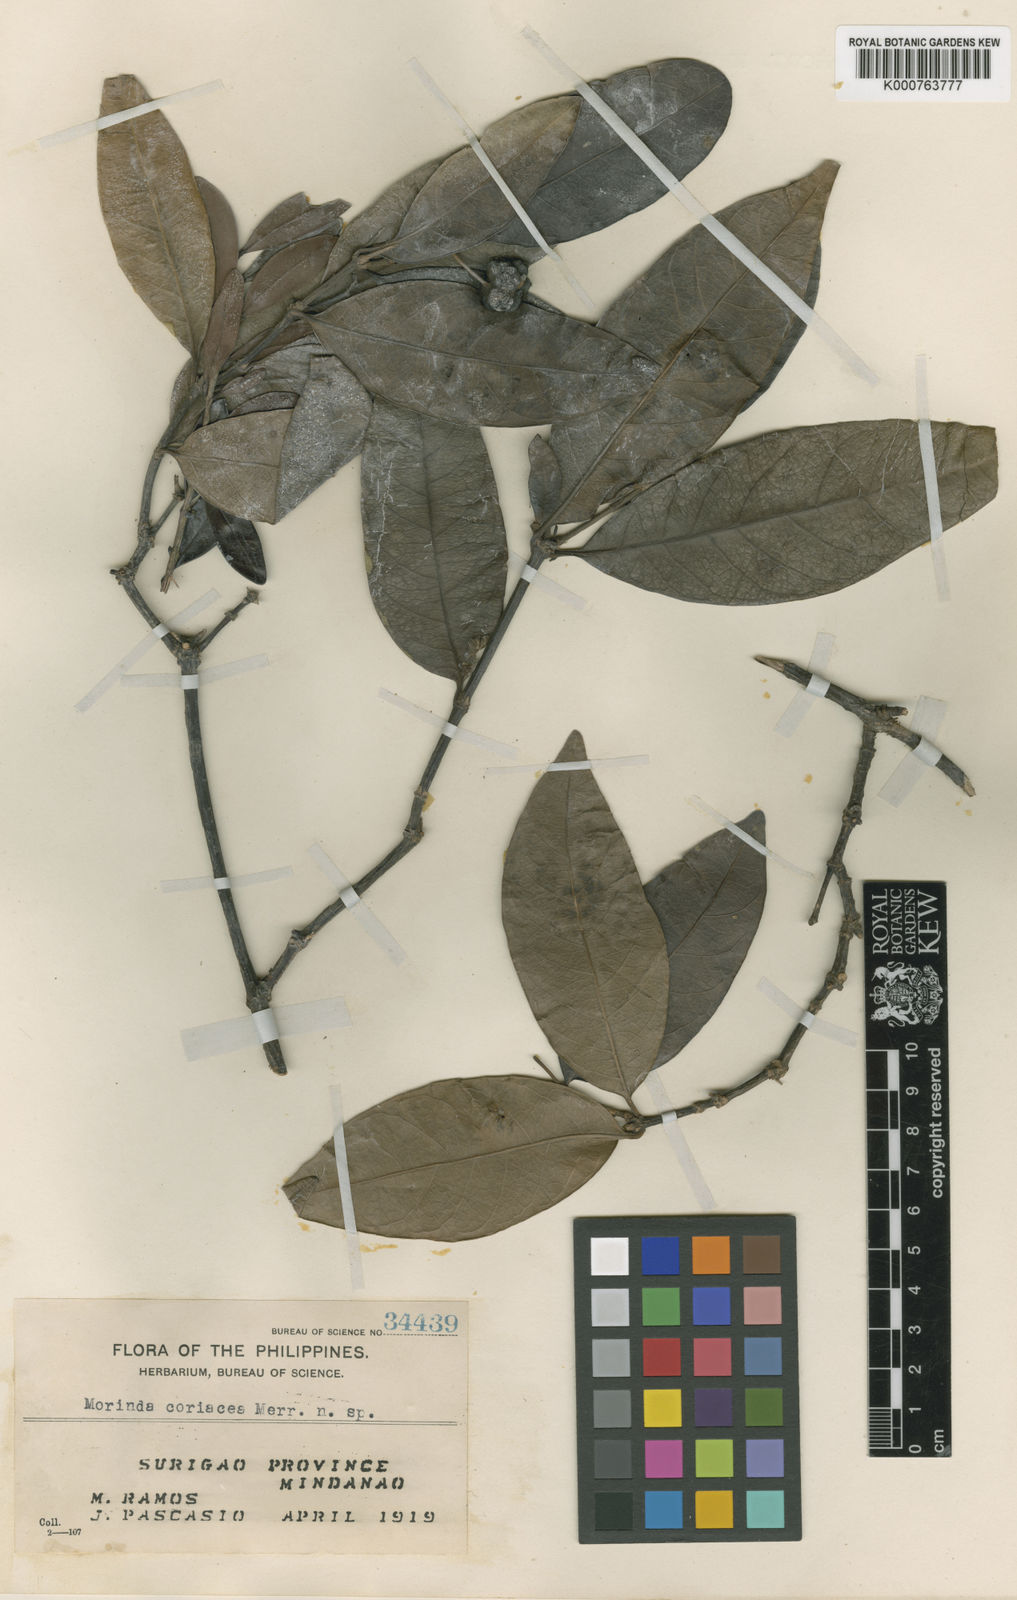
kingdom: Plantae
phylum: Tracheophyta
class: Magnoliopsida
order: Gentianales
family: Rubiaceae
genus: Gynochthodes
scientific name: Gynochthodes wongii
